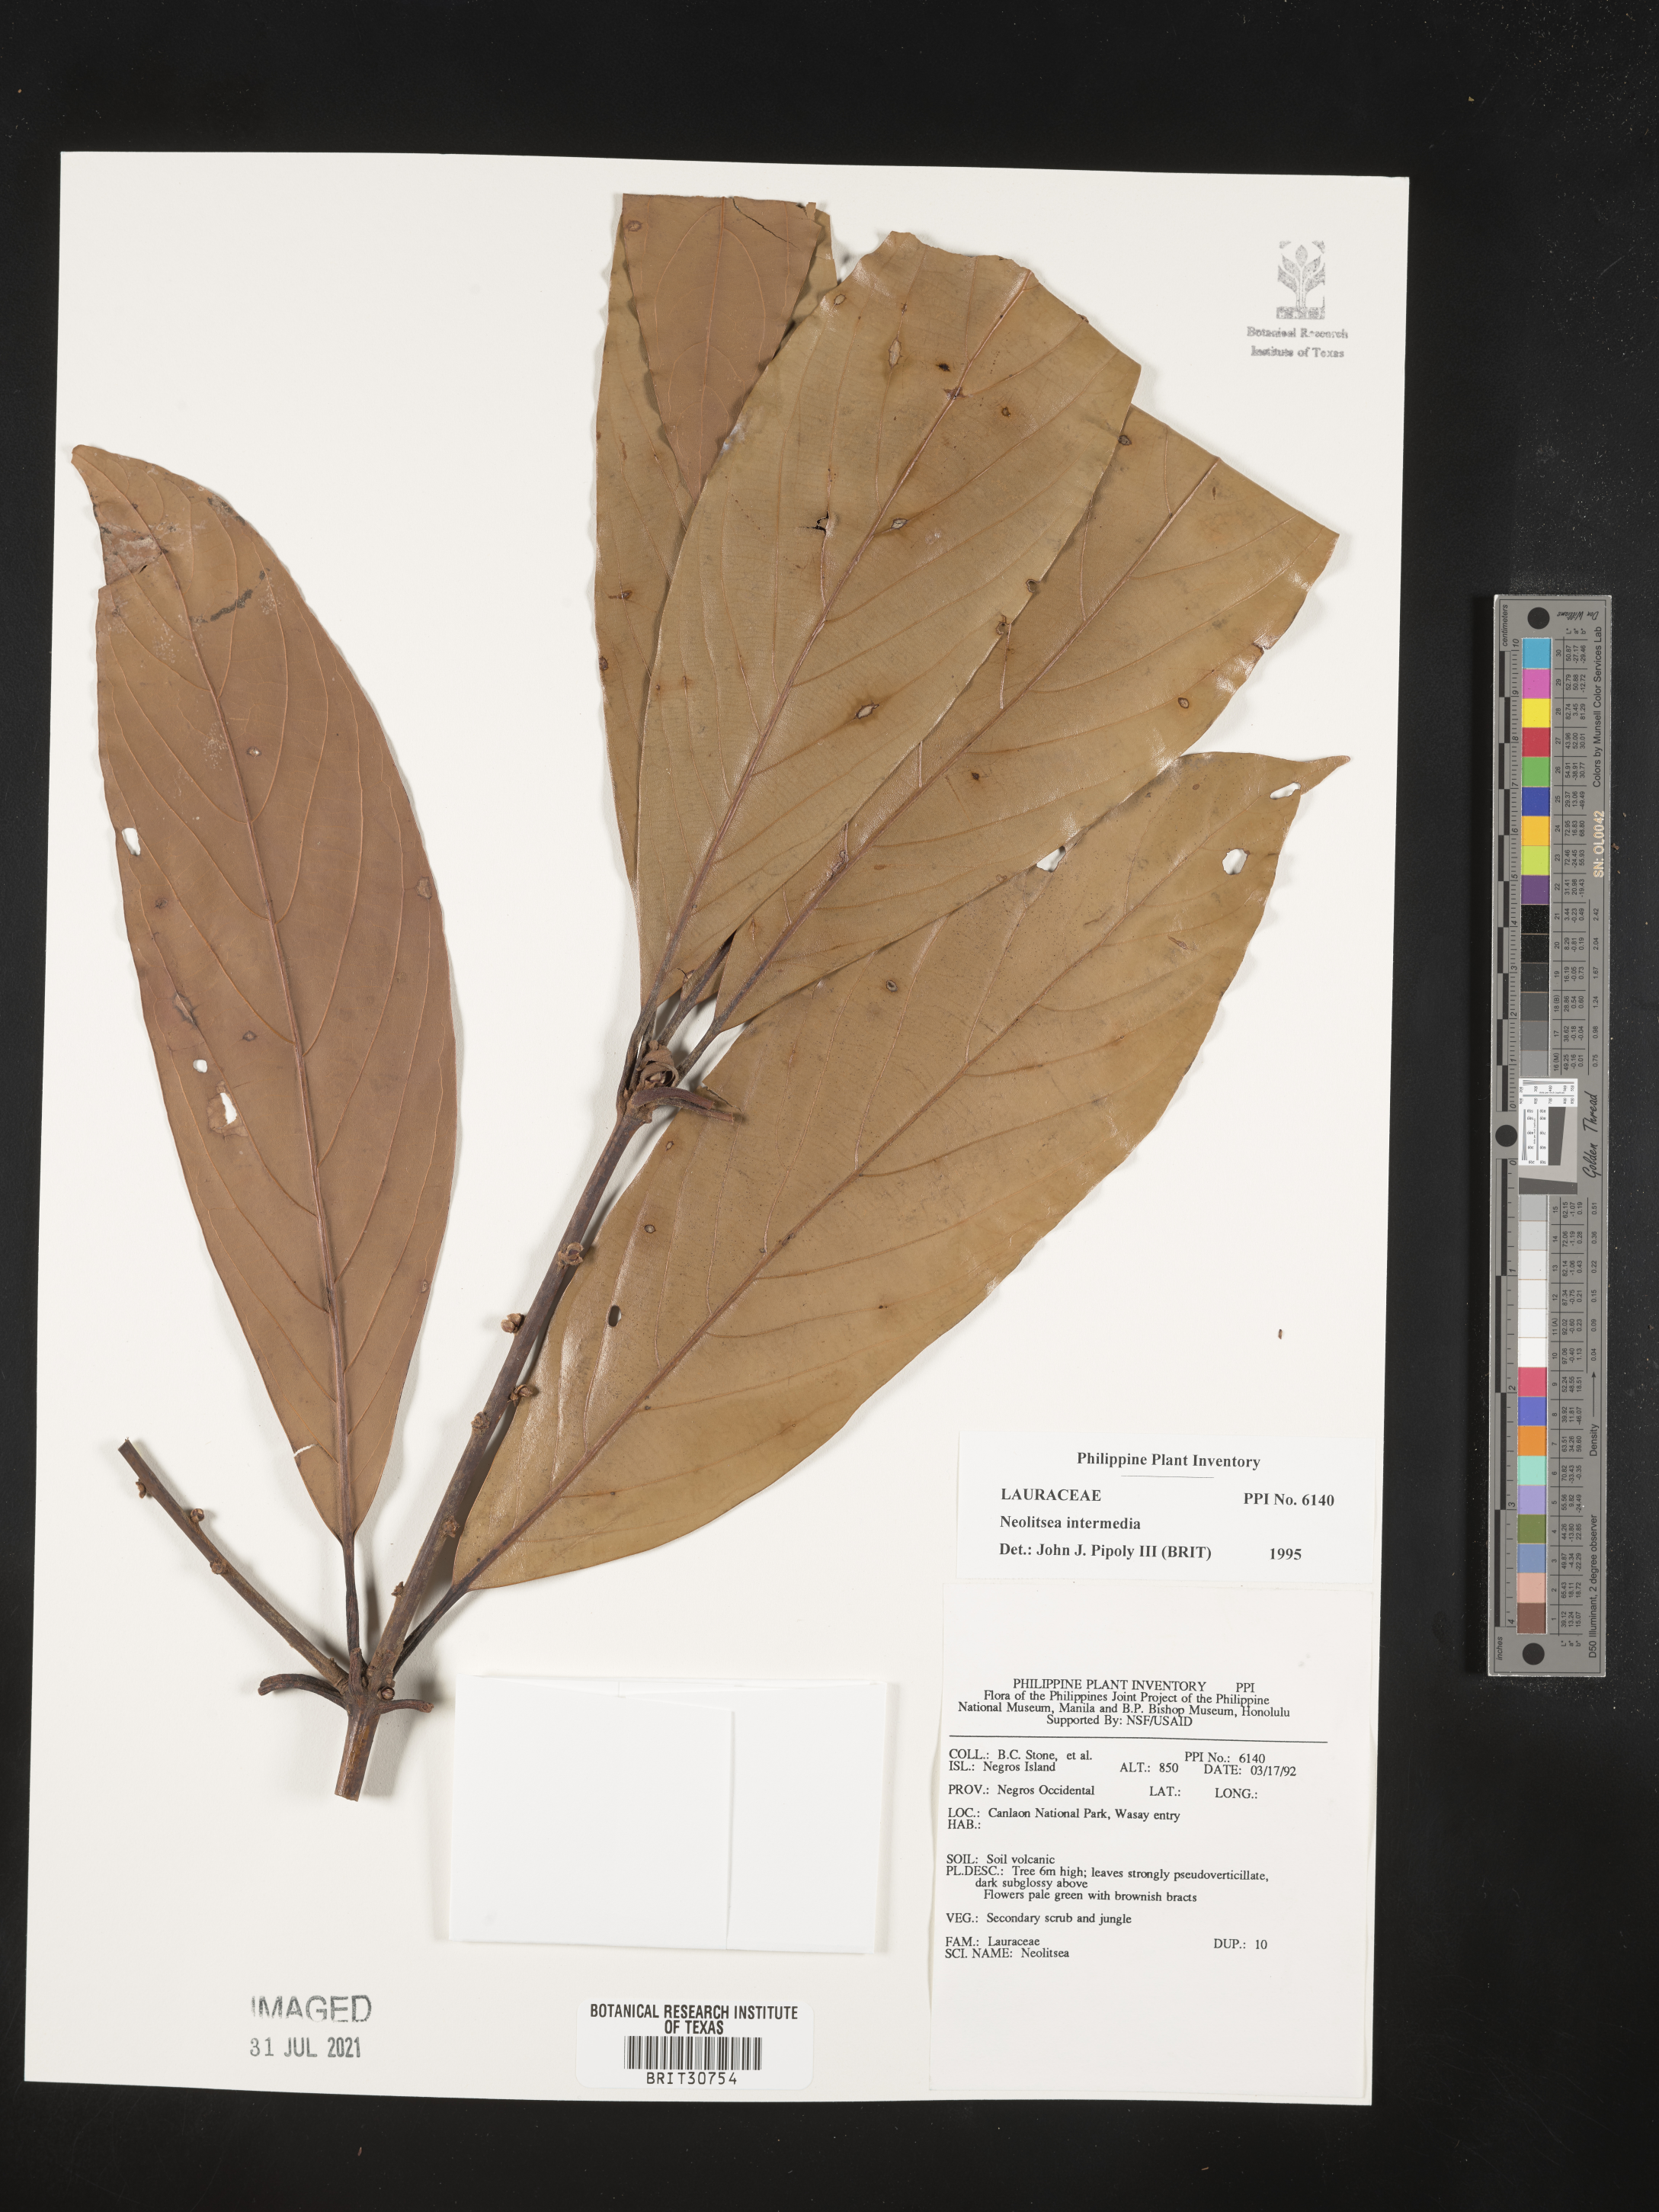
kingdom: Plantae
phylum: Tracheophyta
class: Magnoliopsida
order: Laurales
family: Lauraceae
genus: Actinodaphne
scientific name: Actinodaphne intermedia
